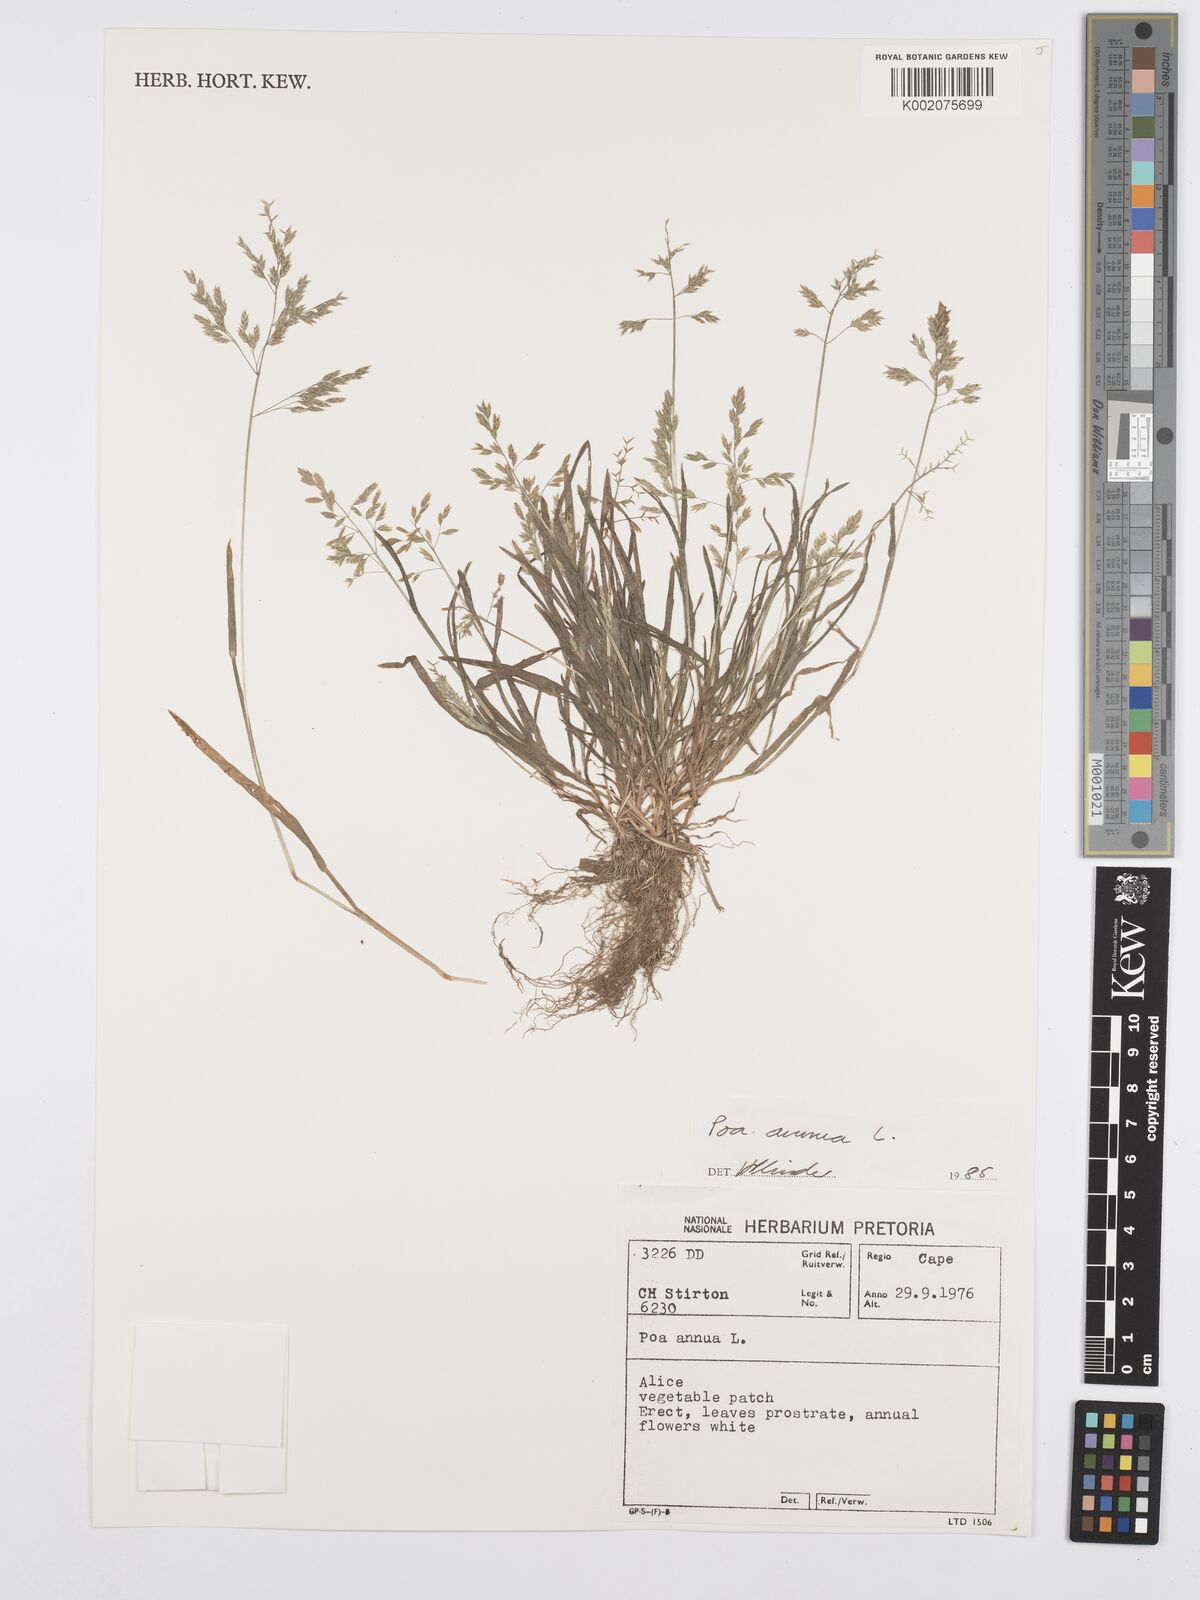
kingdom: Plantae
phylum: Tracheophyta
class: Liliopsida
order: Poales
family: Poaceae
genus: Poa
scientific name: Poa annua
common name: Annual bluegrass
